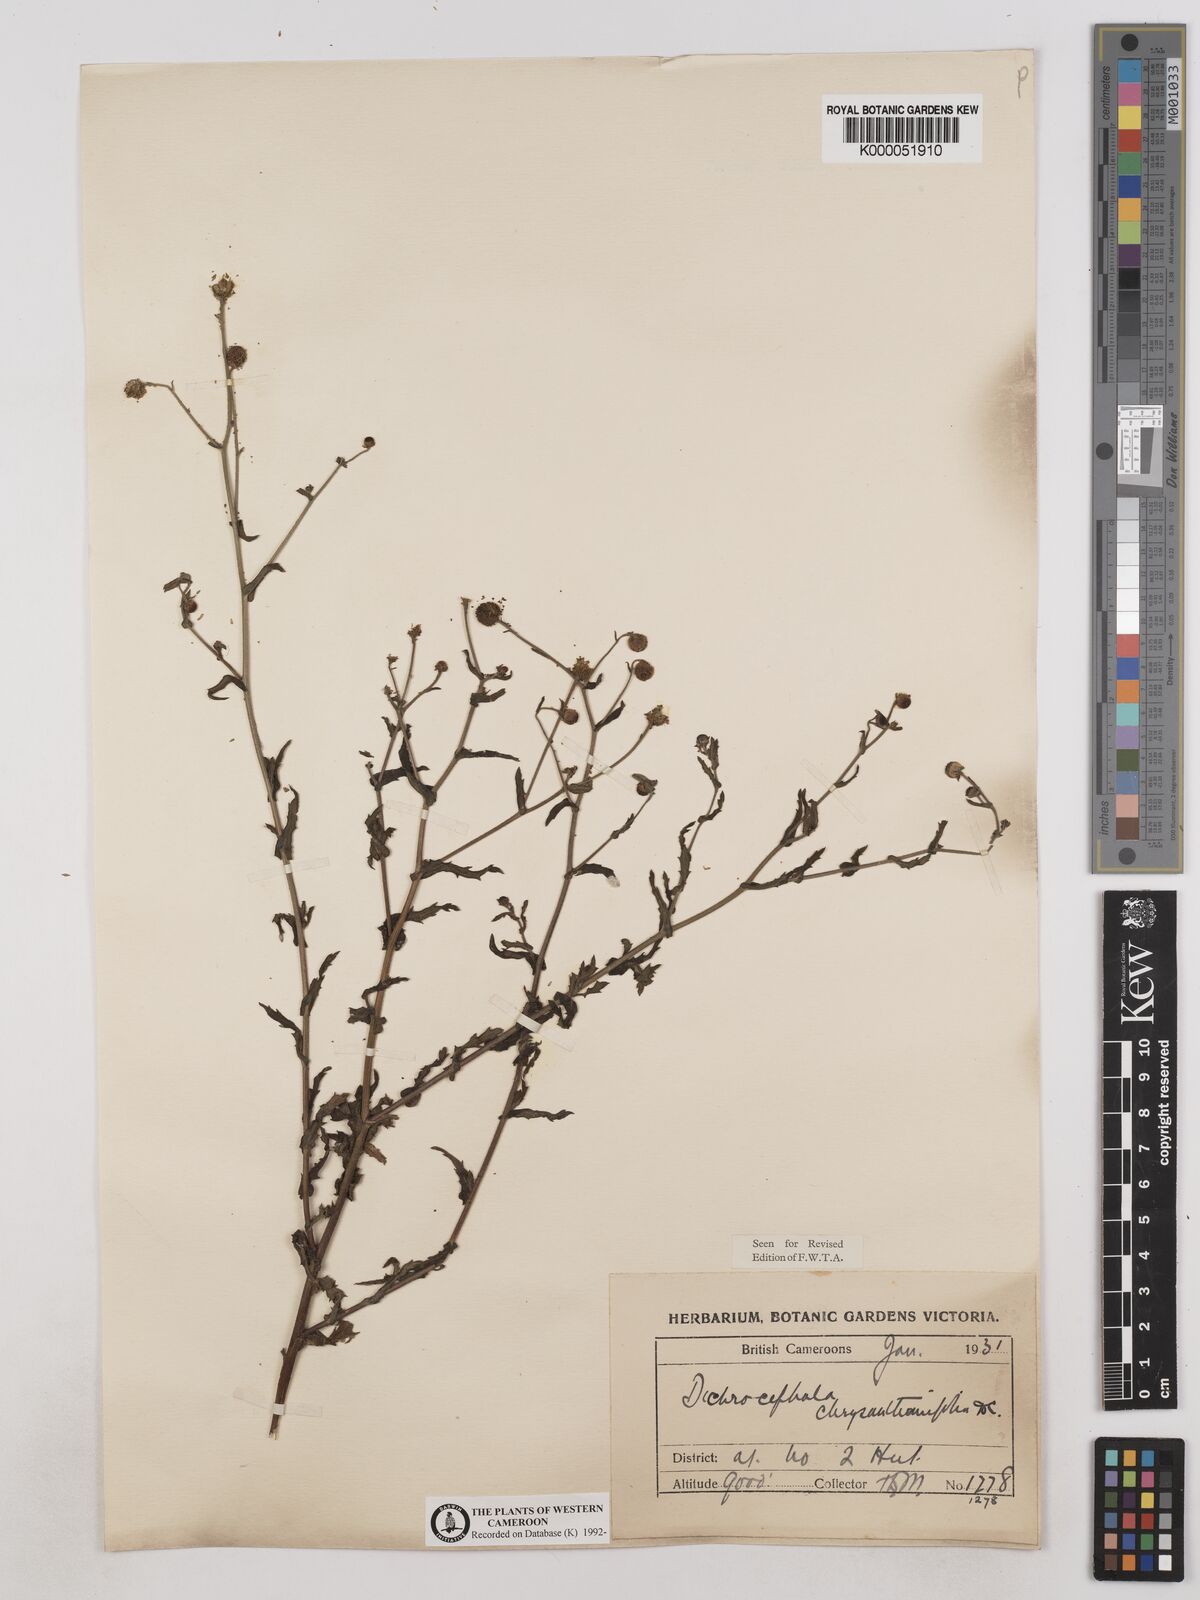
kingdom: Plantae
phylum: Tracheophyta
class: Magnoliopsida
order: Asterales
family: Asteraceae
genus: Dichrocephala
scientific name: Dichrocephala chrysanthemifolia
